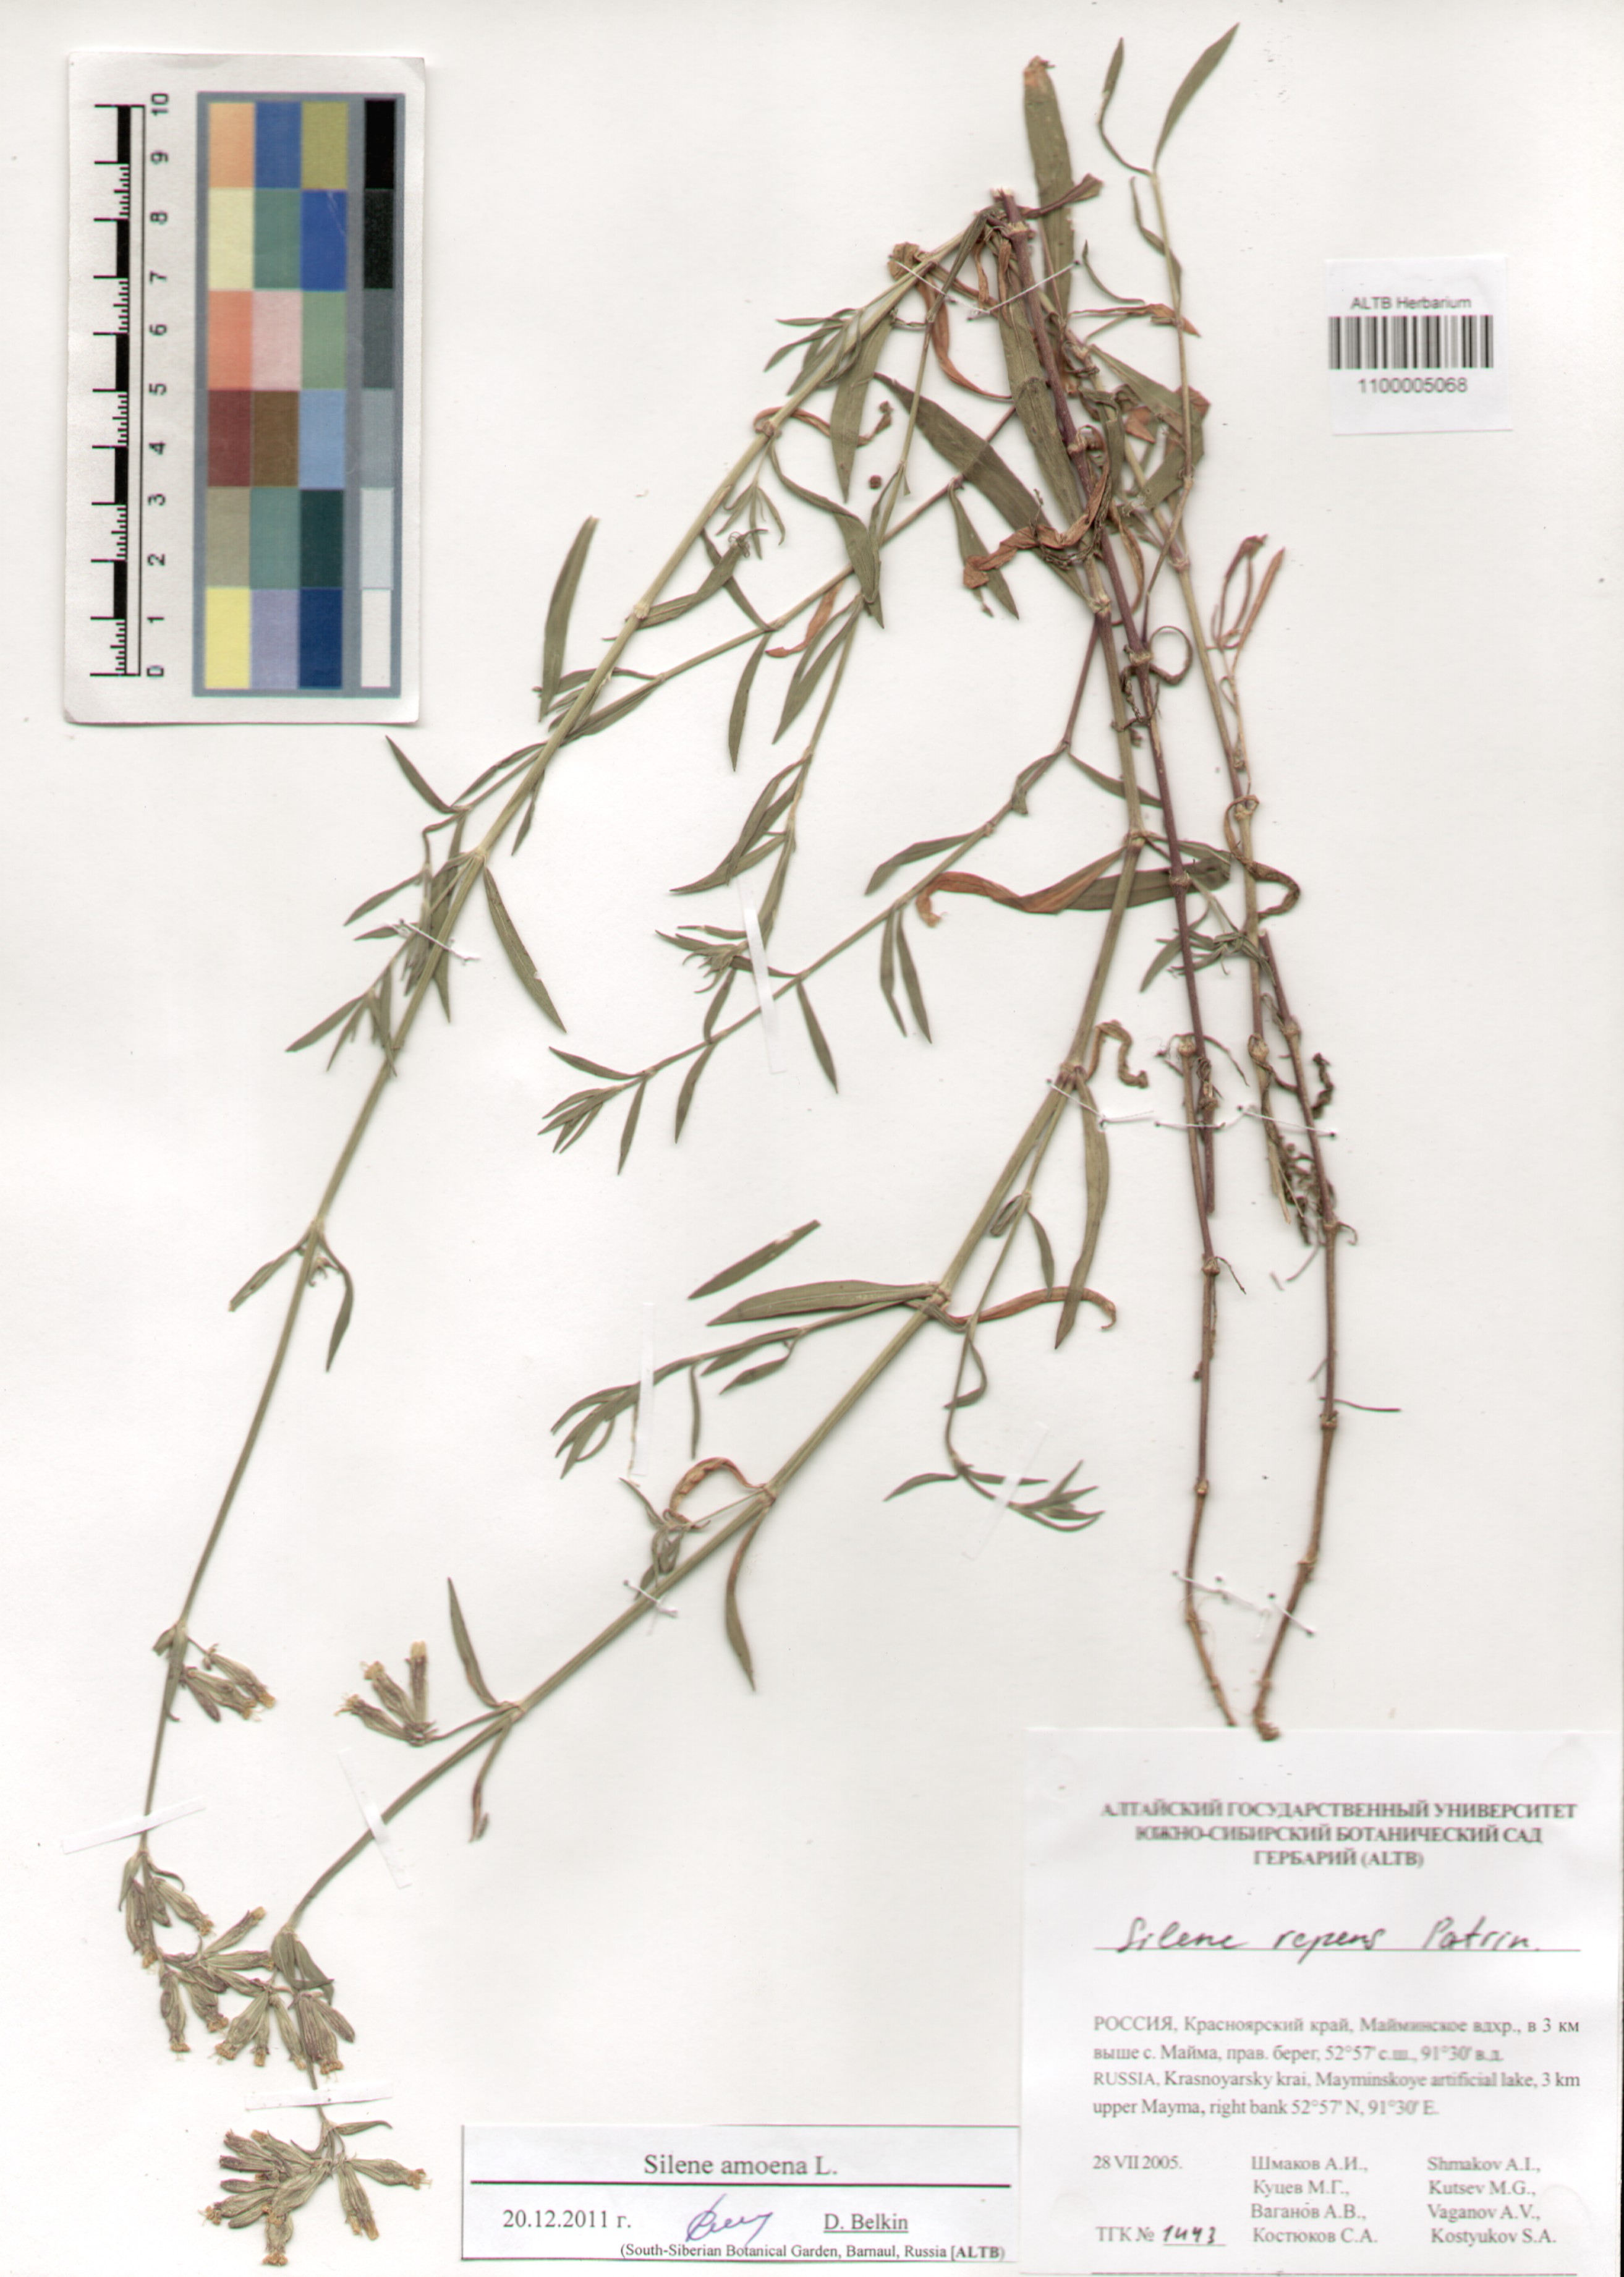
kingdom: Plantae
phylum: Tracheophyta
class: Magnoliopsida
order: Caryophyllales
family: Caryophyllaceae
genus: Silene
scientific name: Silene amoena
